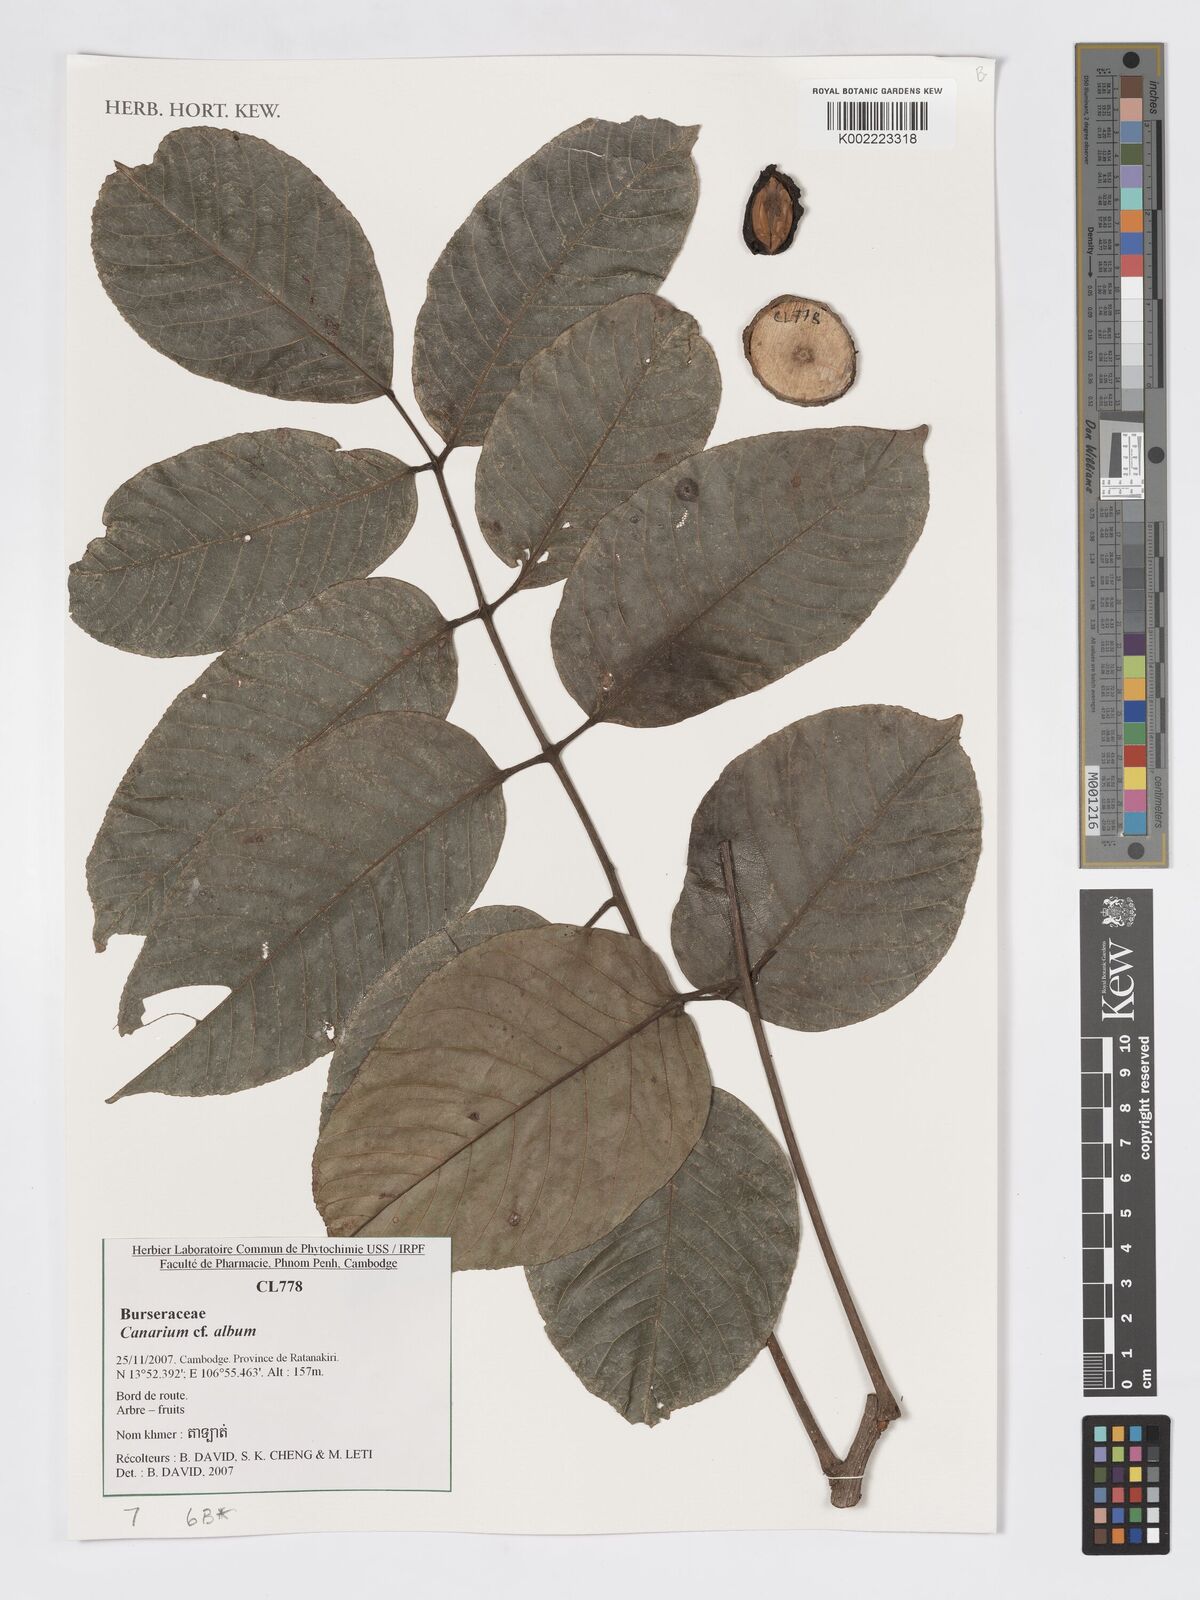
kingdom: Plantae
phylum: Tracheophyta
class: Magnoliopsida
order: Sapindales
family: Burseraceae
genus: Canarium
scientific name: Canarium
